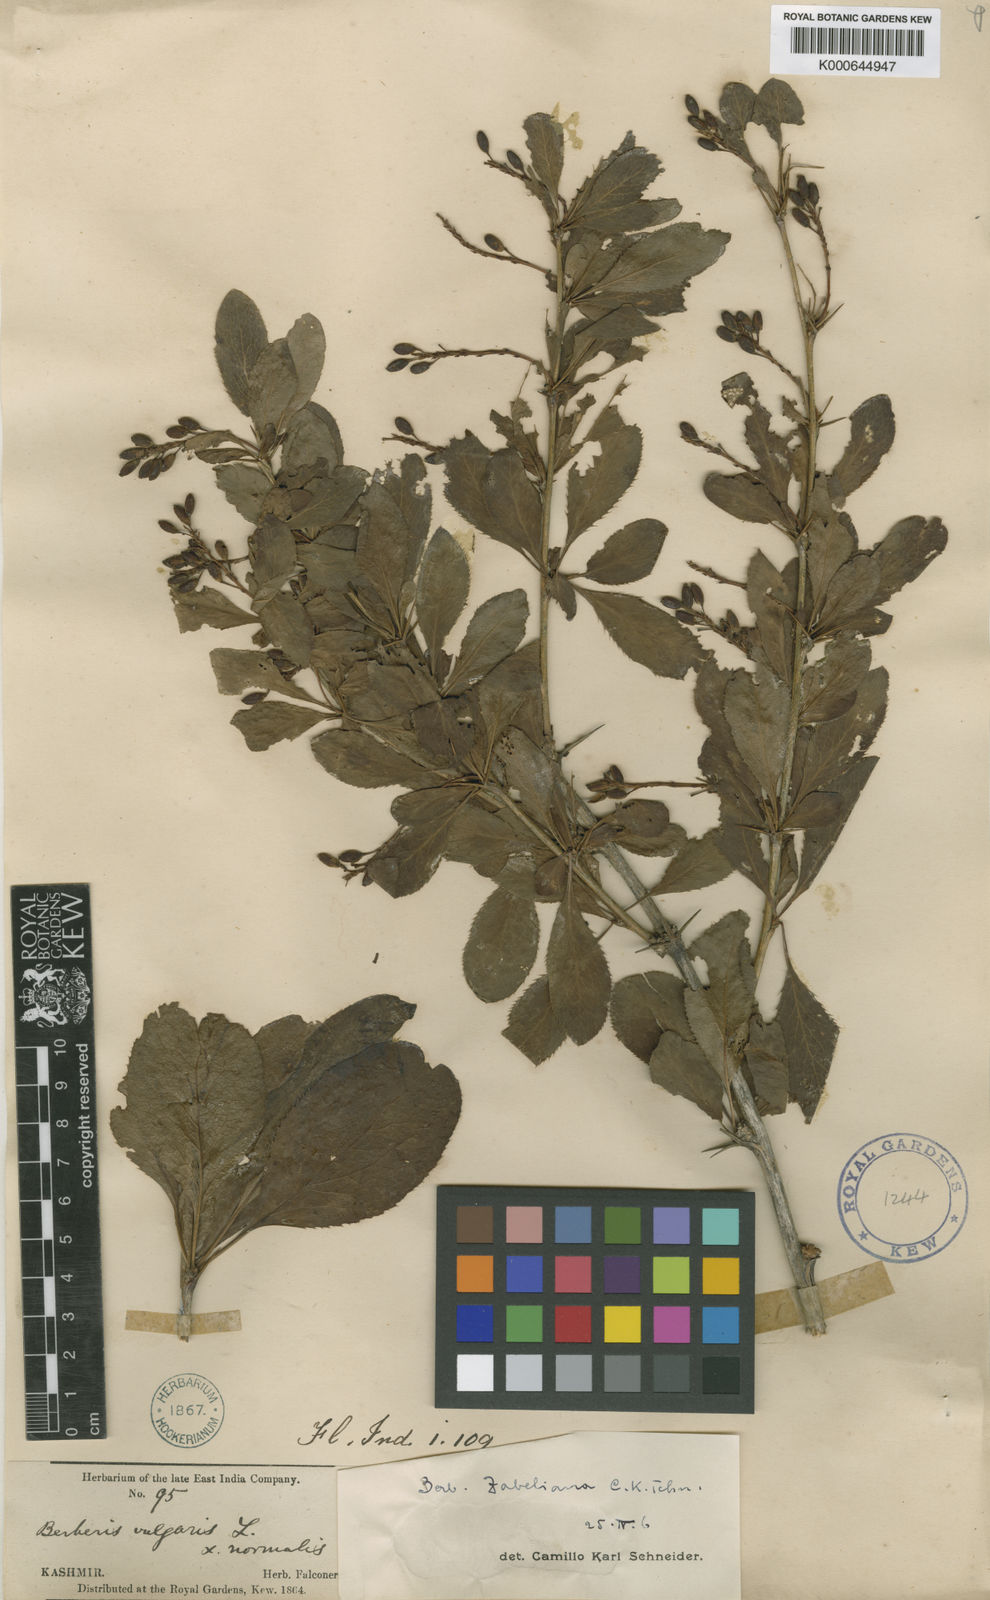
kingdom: Plantae
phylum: Tracheophyta
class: Magnoliopsida
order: Ranunculales
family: Berberidaceae
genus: Berberis
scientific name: Berberis pachyacantha
